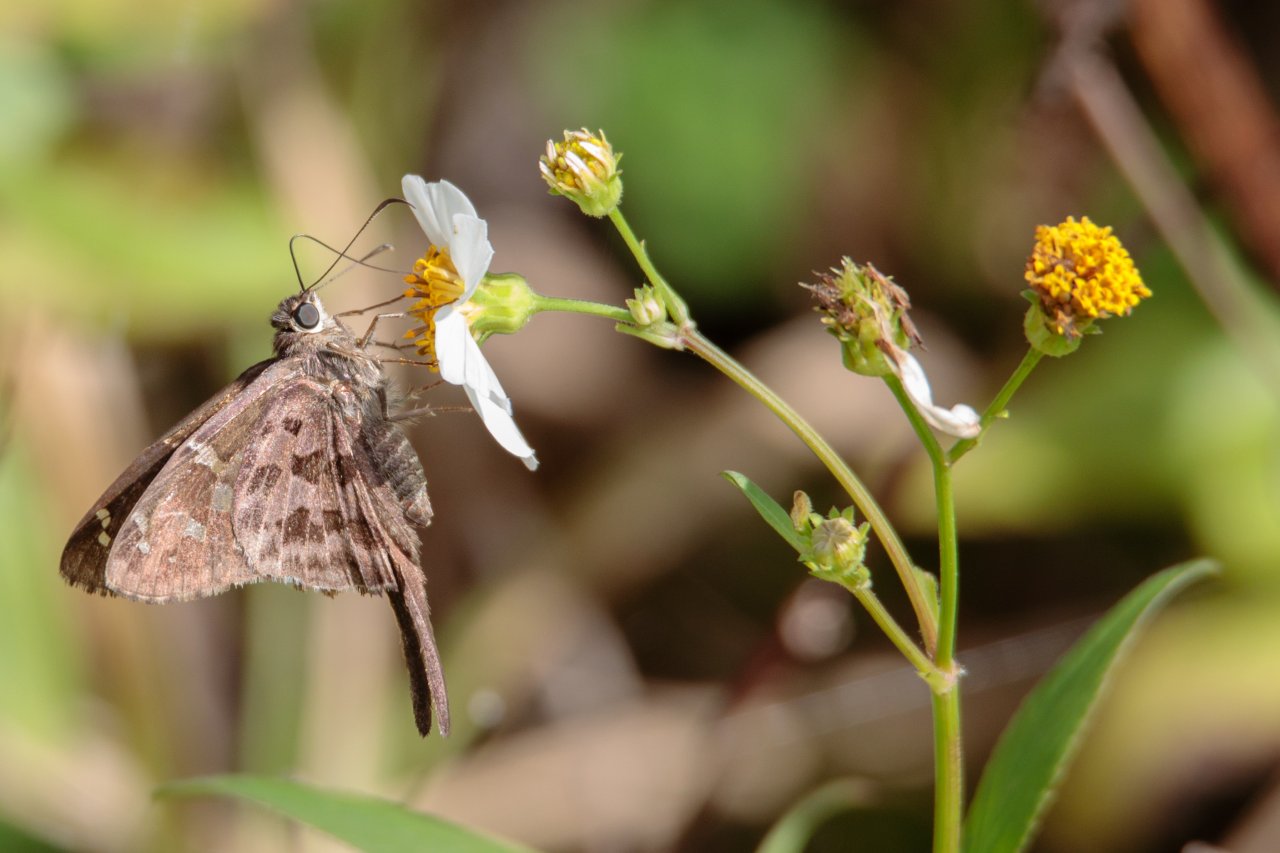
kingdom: Animalia
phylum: Arthropoda
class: Insecta
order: Lepidoptera
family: Hesperiidae
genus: Urbanus
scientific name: Urbanus dorantes
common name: Dorantes Longtail
